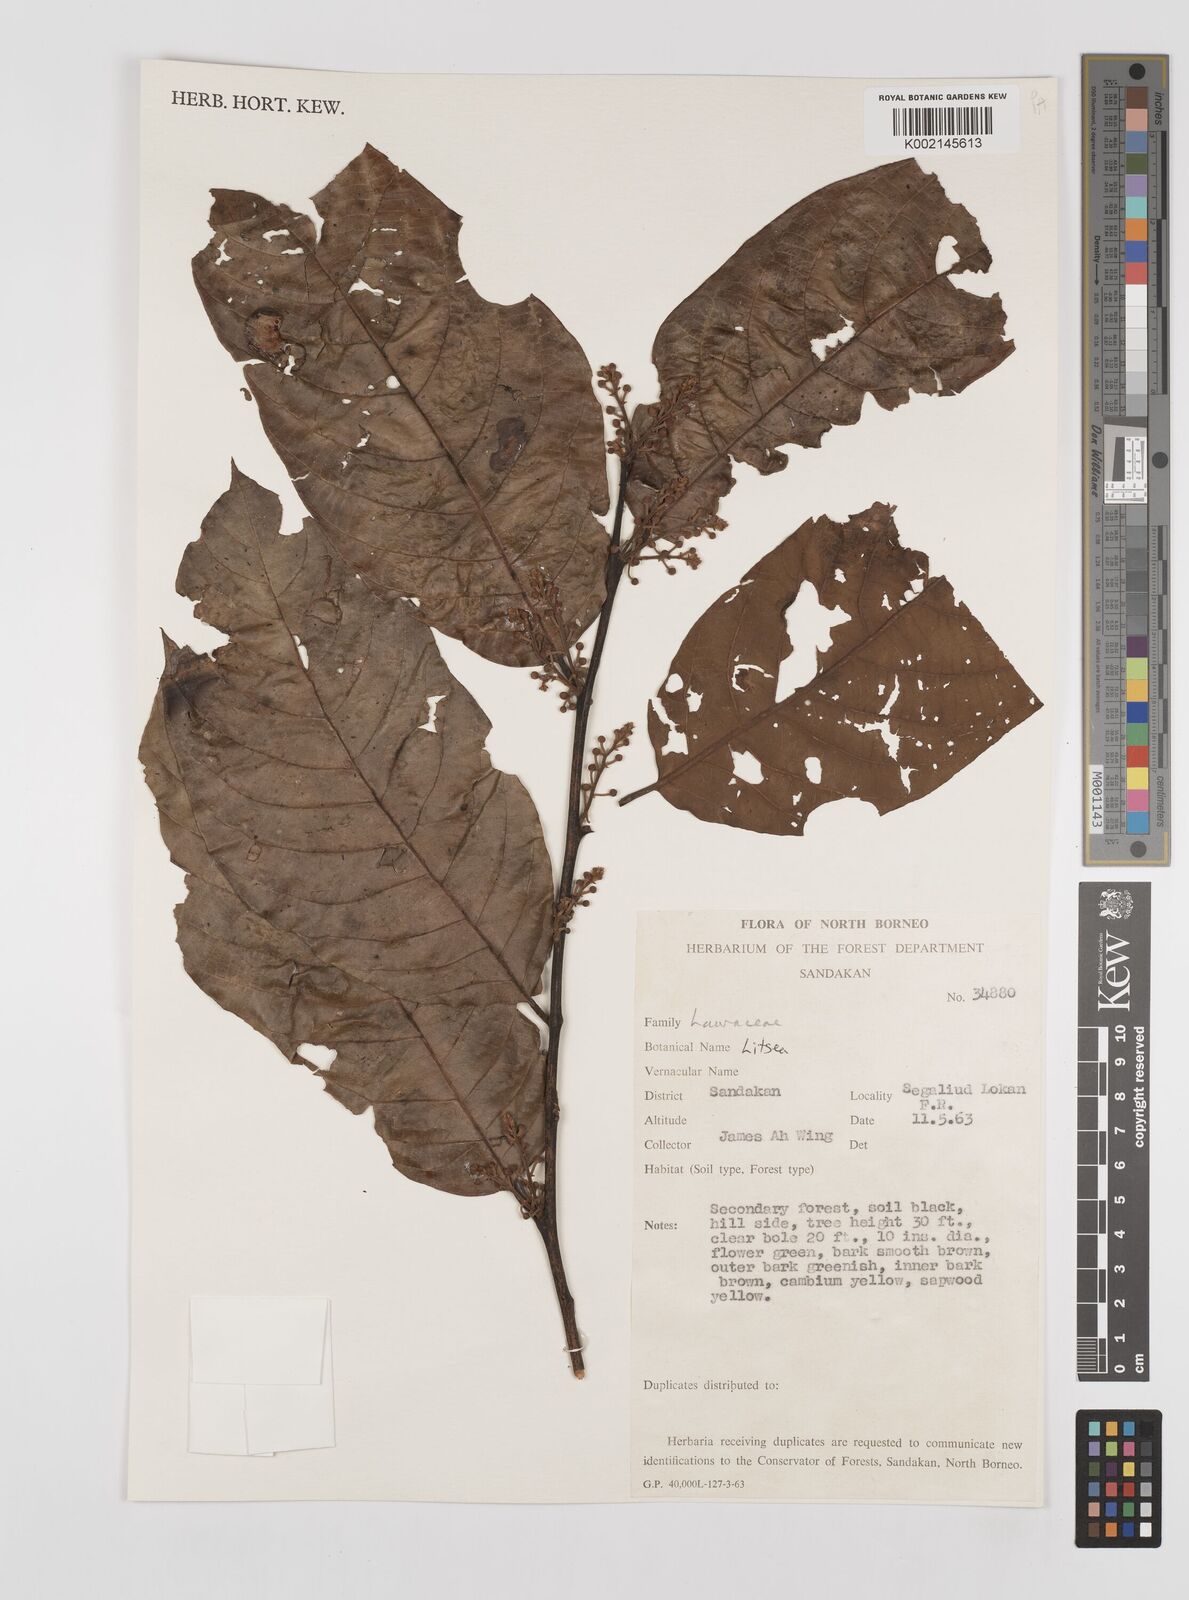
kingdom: Plantae
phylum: Tracheophyta
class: Magnoliopsida
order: Laurales
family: Lauraceae
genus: Litsea
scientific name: Litsea
